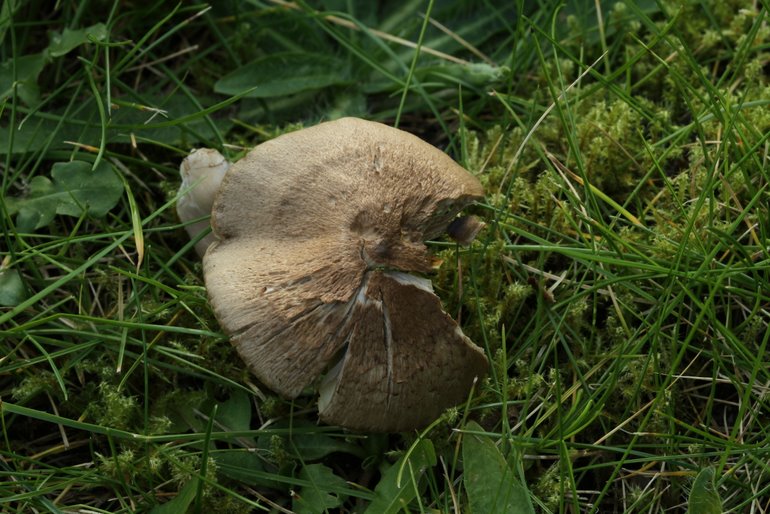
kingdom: Fungi
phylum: Basidiomycota
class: Agaricomycetes
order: Agaricales
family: Hygrophoraceae
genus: Neohygrocybe
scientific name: Neohygrocybe nitrata
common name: stinkende vokshat
